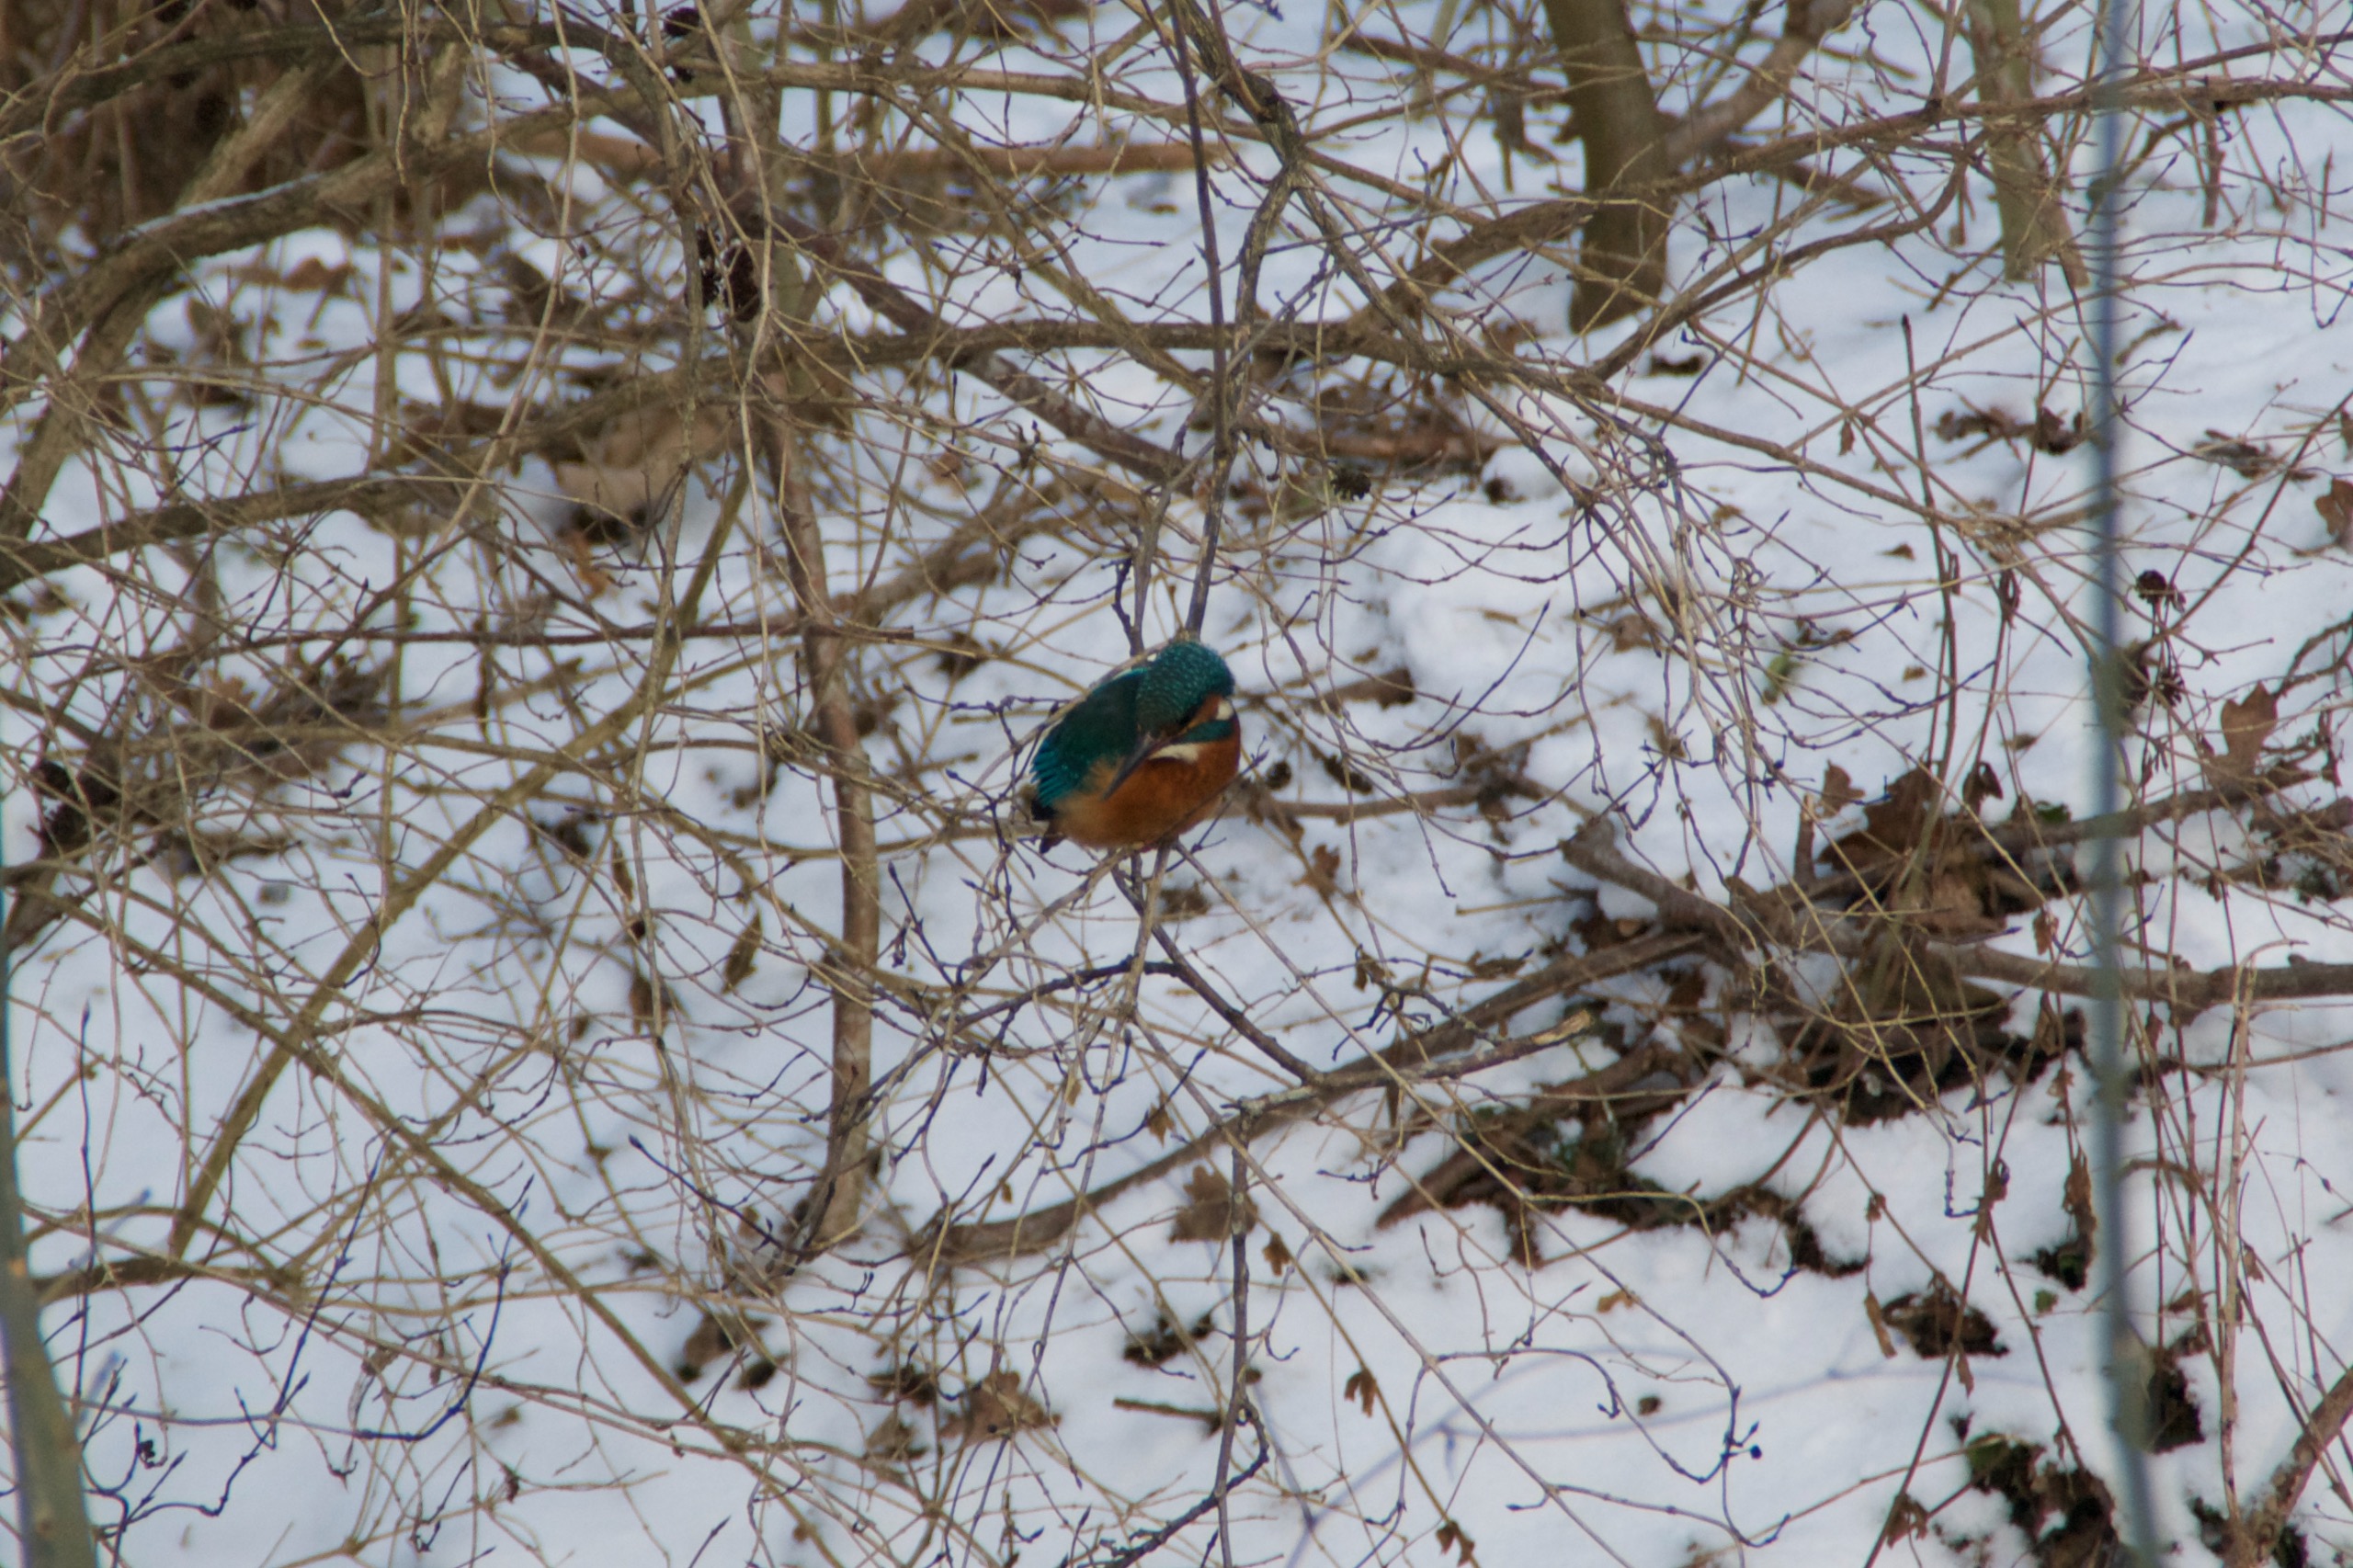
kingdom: Animalia
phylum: Chordata
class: Aves
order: Coraciiformes
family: Alcedinidae
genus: Alcedo
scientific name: Alcedo atthis
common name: Isfugl
